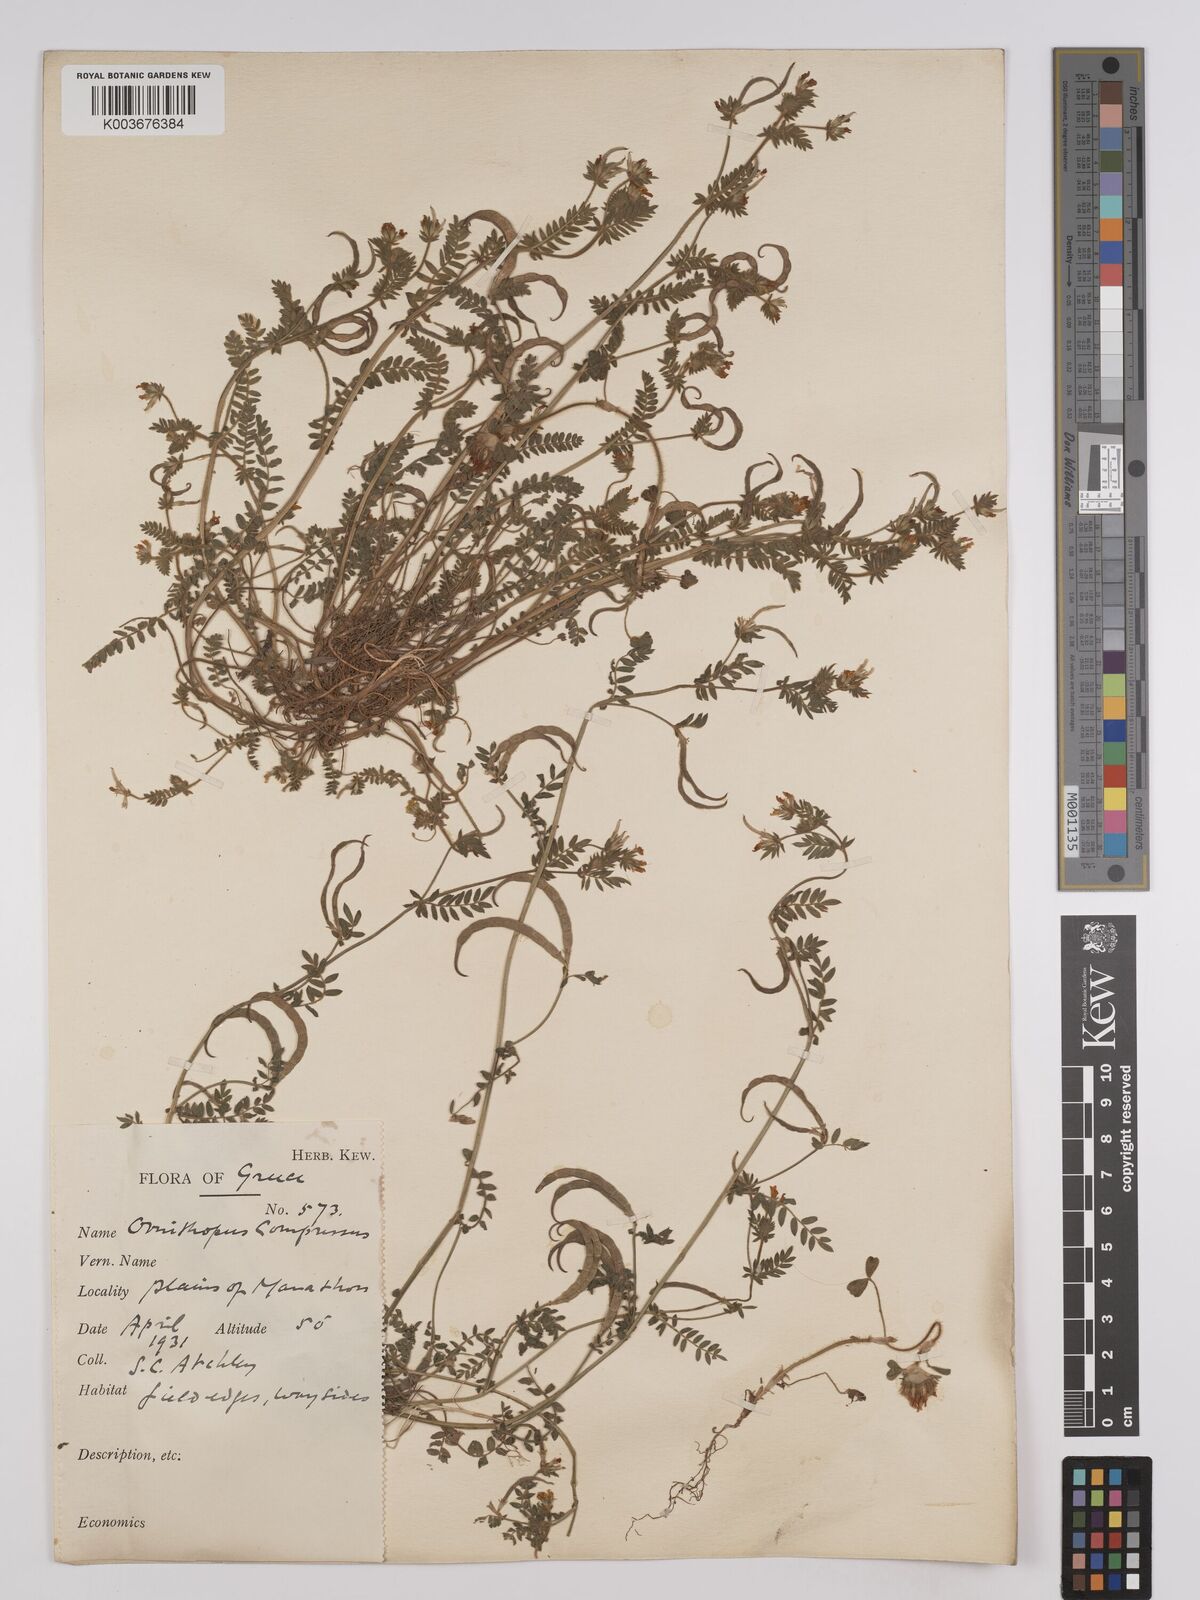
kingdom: Plantae
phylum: Tracheophyta
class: Magnoliopsida
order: Fabales
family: Fabaceae
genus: Ornithopus
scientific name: Ornithopus compressus
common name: Yellow serradella
